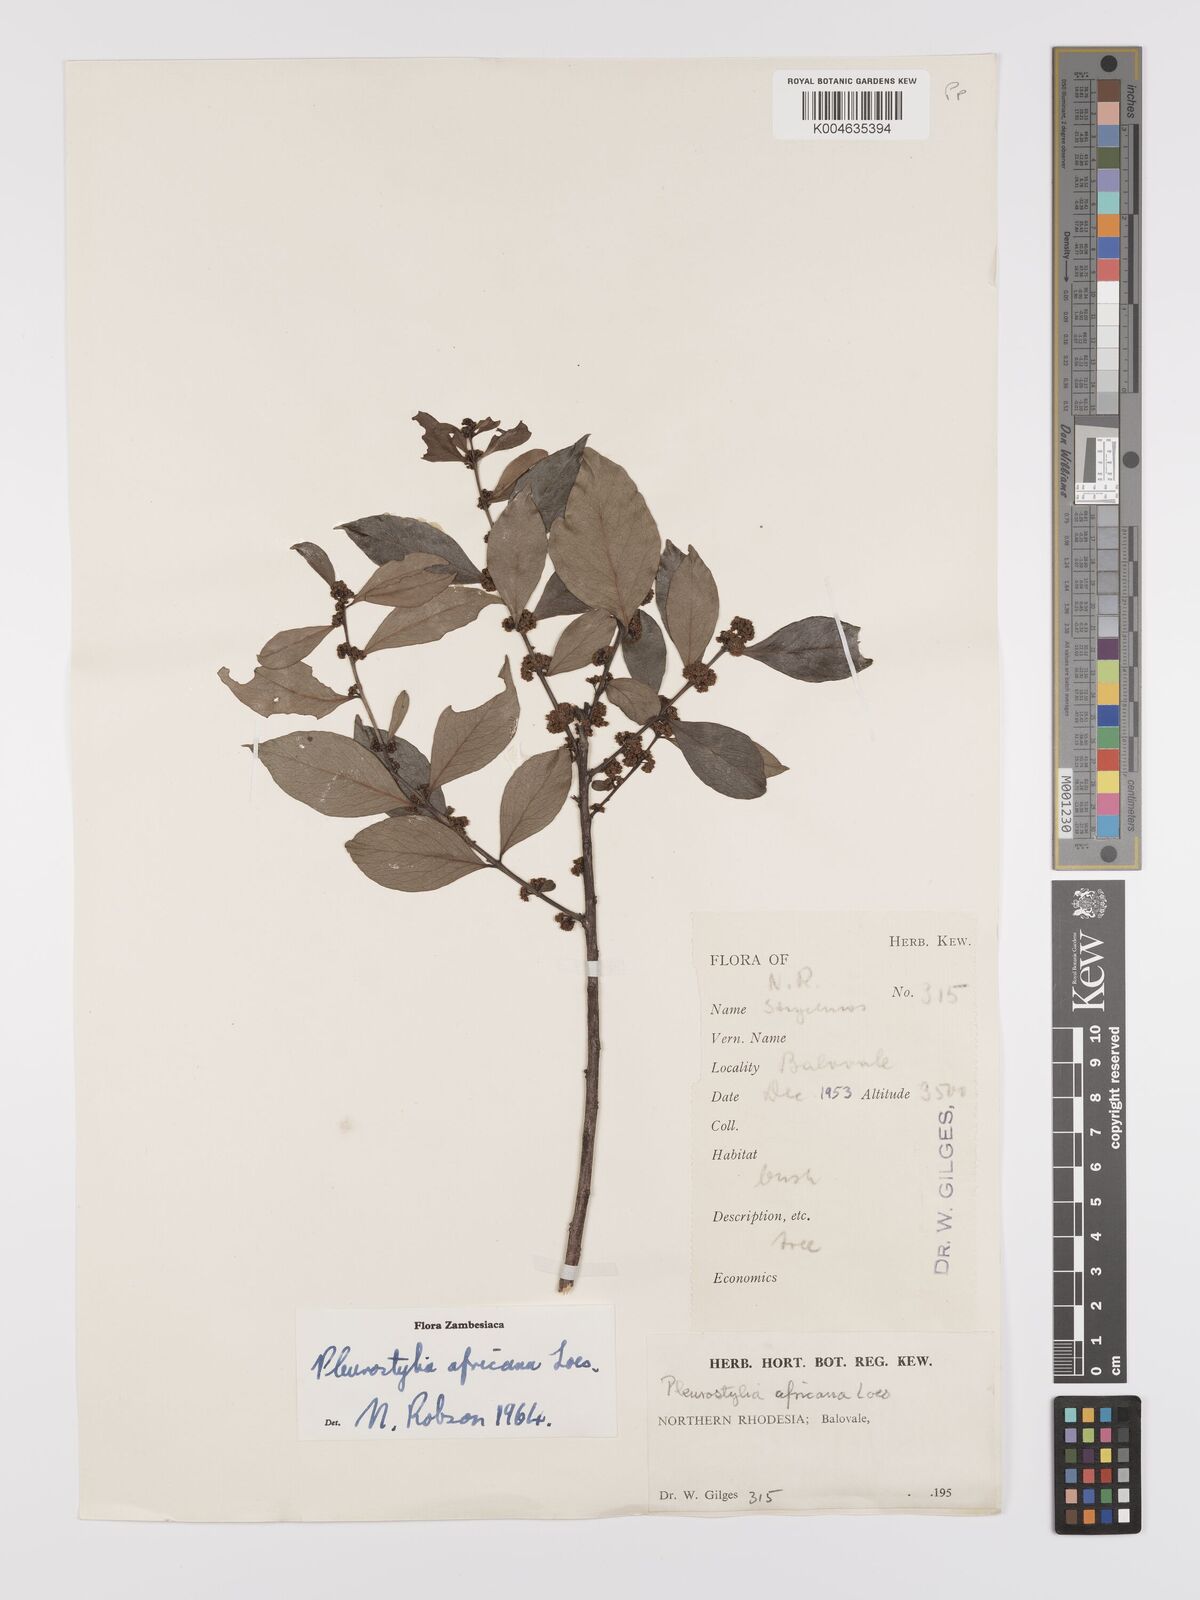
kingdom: Plantae
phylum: Tracheophyta
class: Magnoliopsida
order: Celastrales
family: Celastraceae
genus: Pleurostylia
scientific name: Pleurostylia africana
